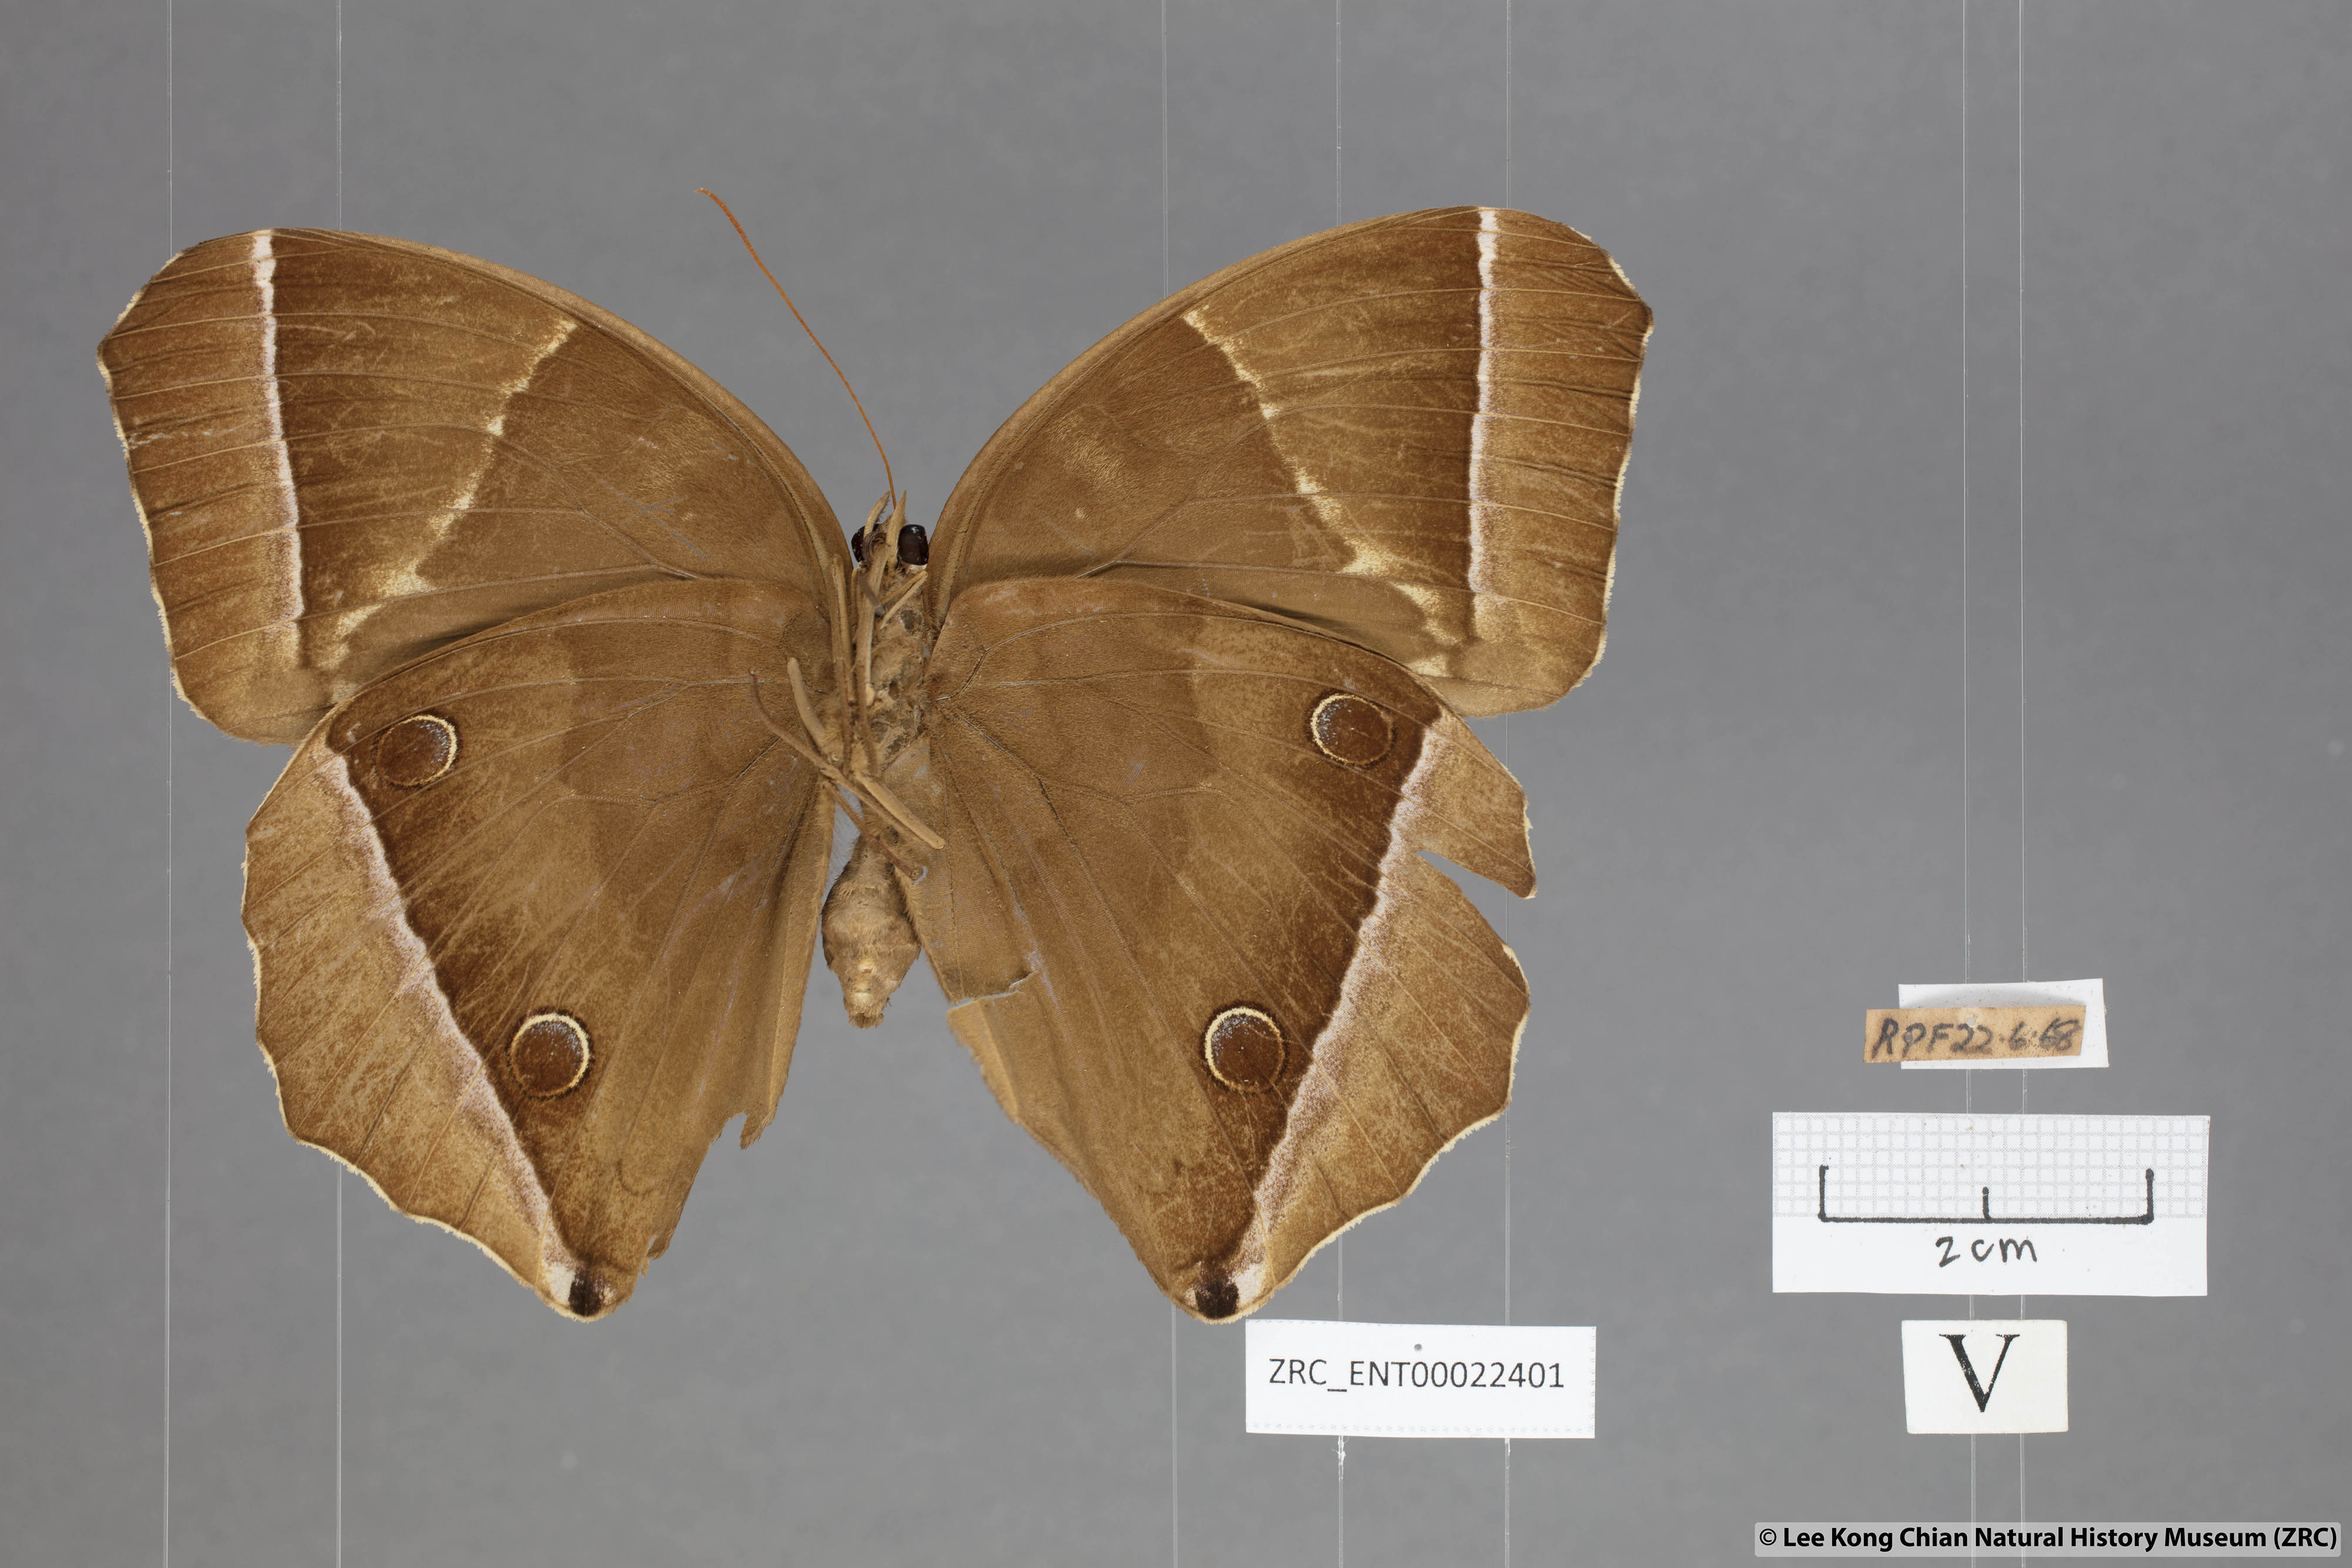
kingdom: Animalia
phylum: Arthropoda
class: Insecta
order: Lepidoptera
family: Nymphalidae
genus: Thaumantis
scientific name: Thaumantis noureddin
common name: Dark jungle glory
